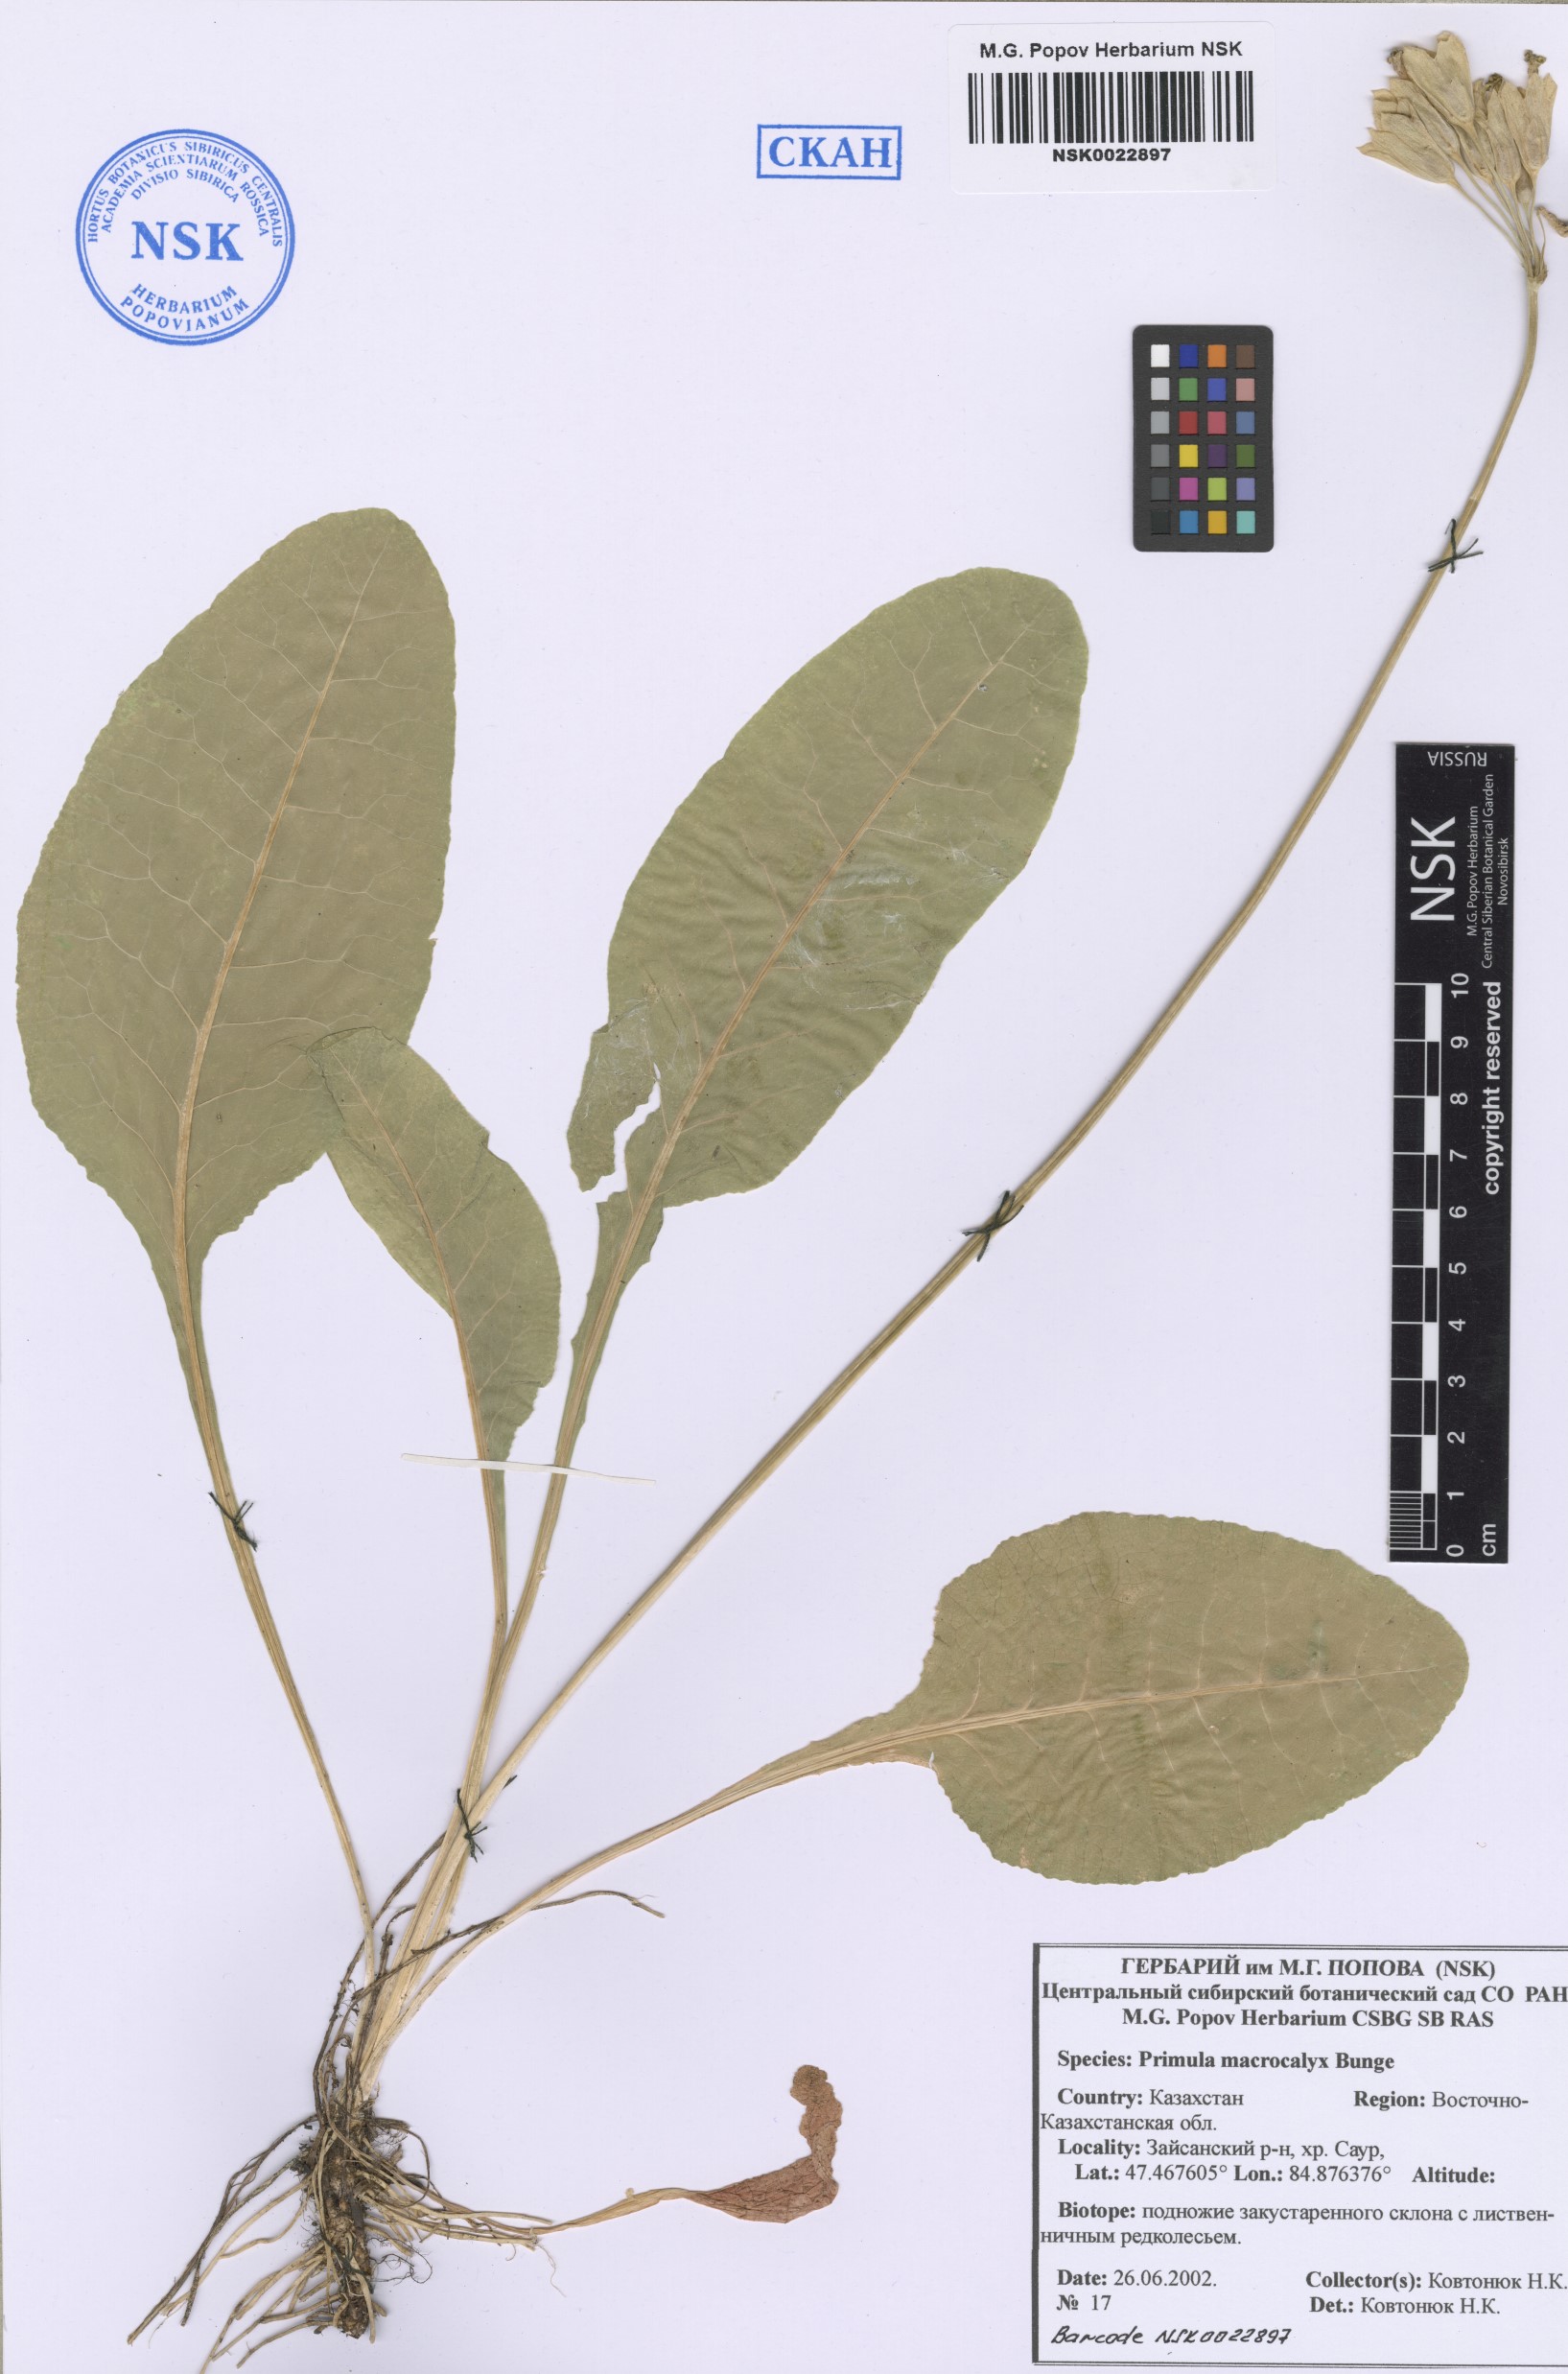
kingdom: Plantae
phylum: Tracheophyta
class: Magnoliopsida
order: Ericales
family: Primulaceae
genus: Primula
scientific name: Primula veris
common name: Cowslip
